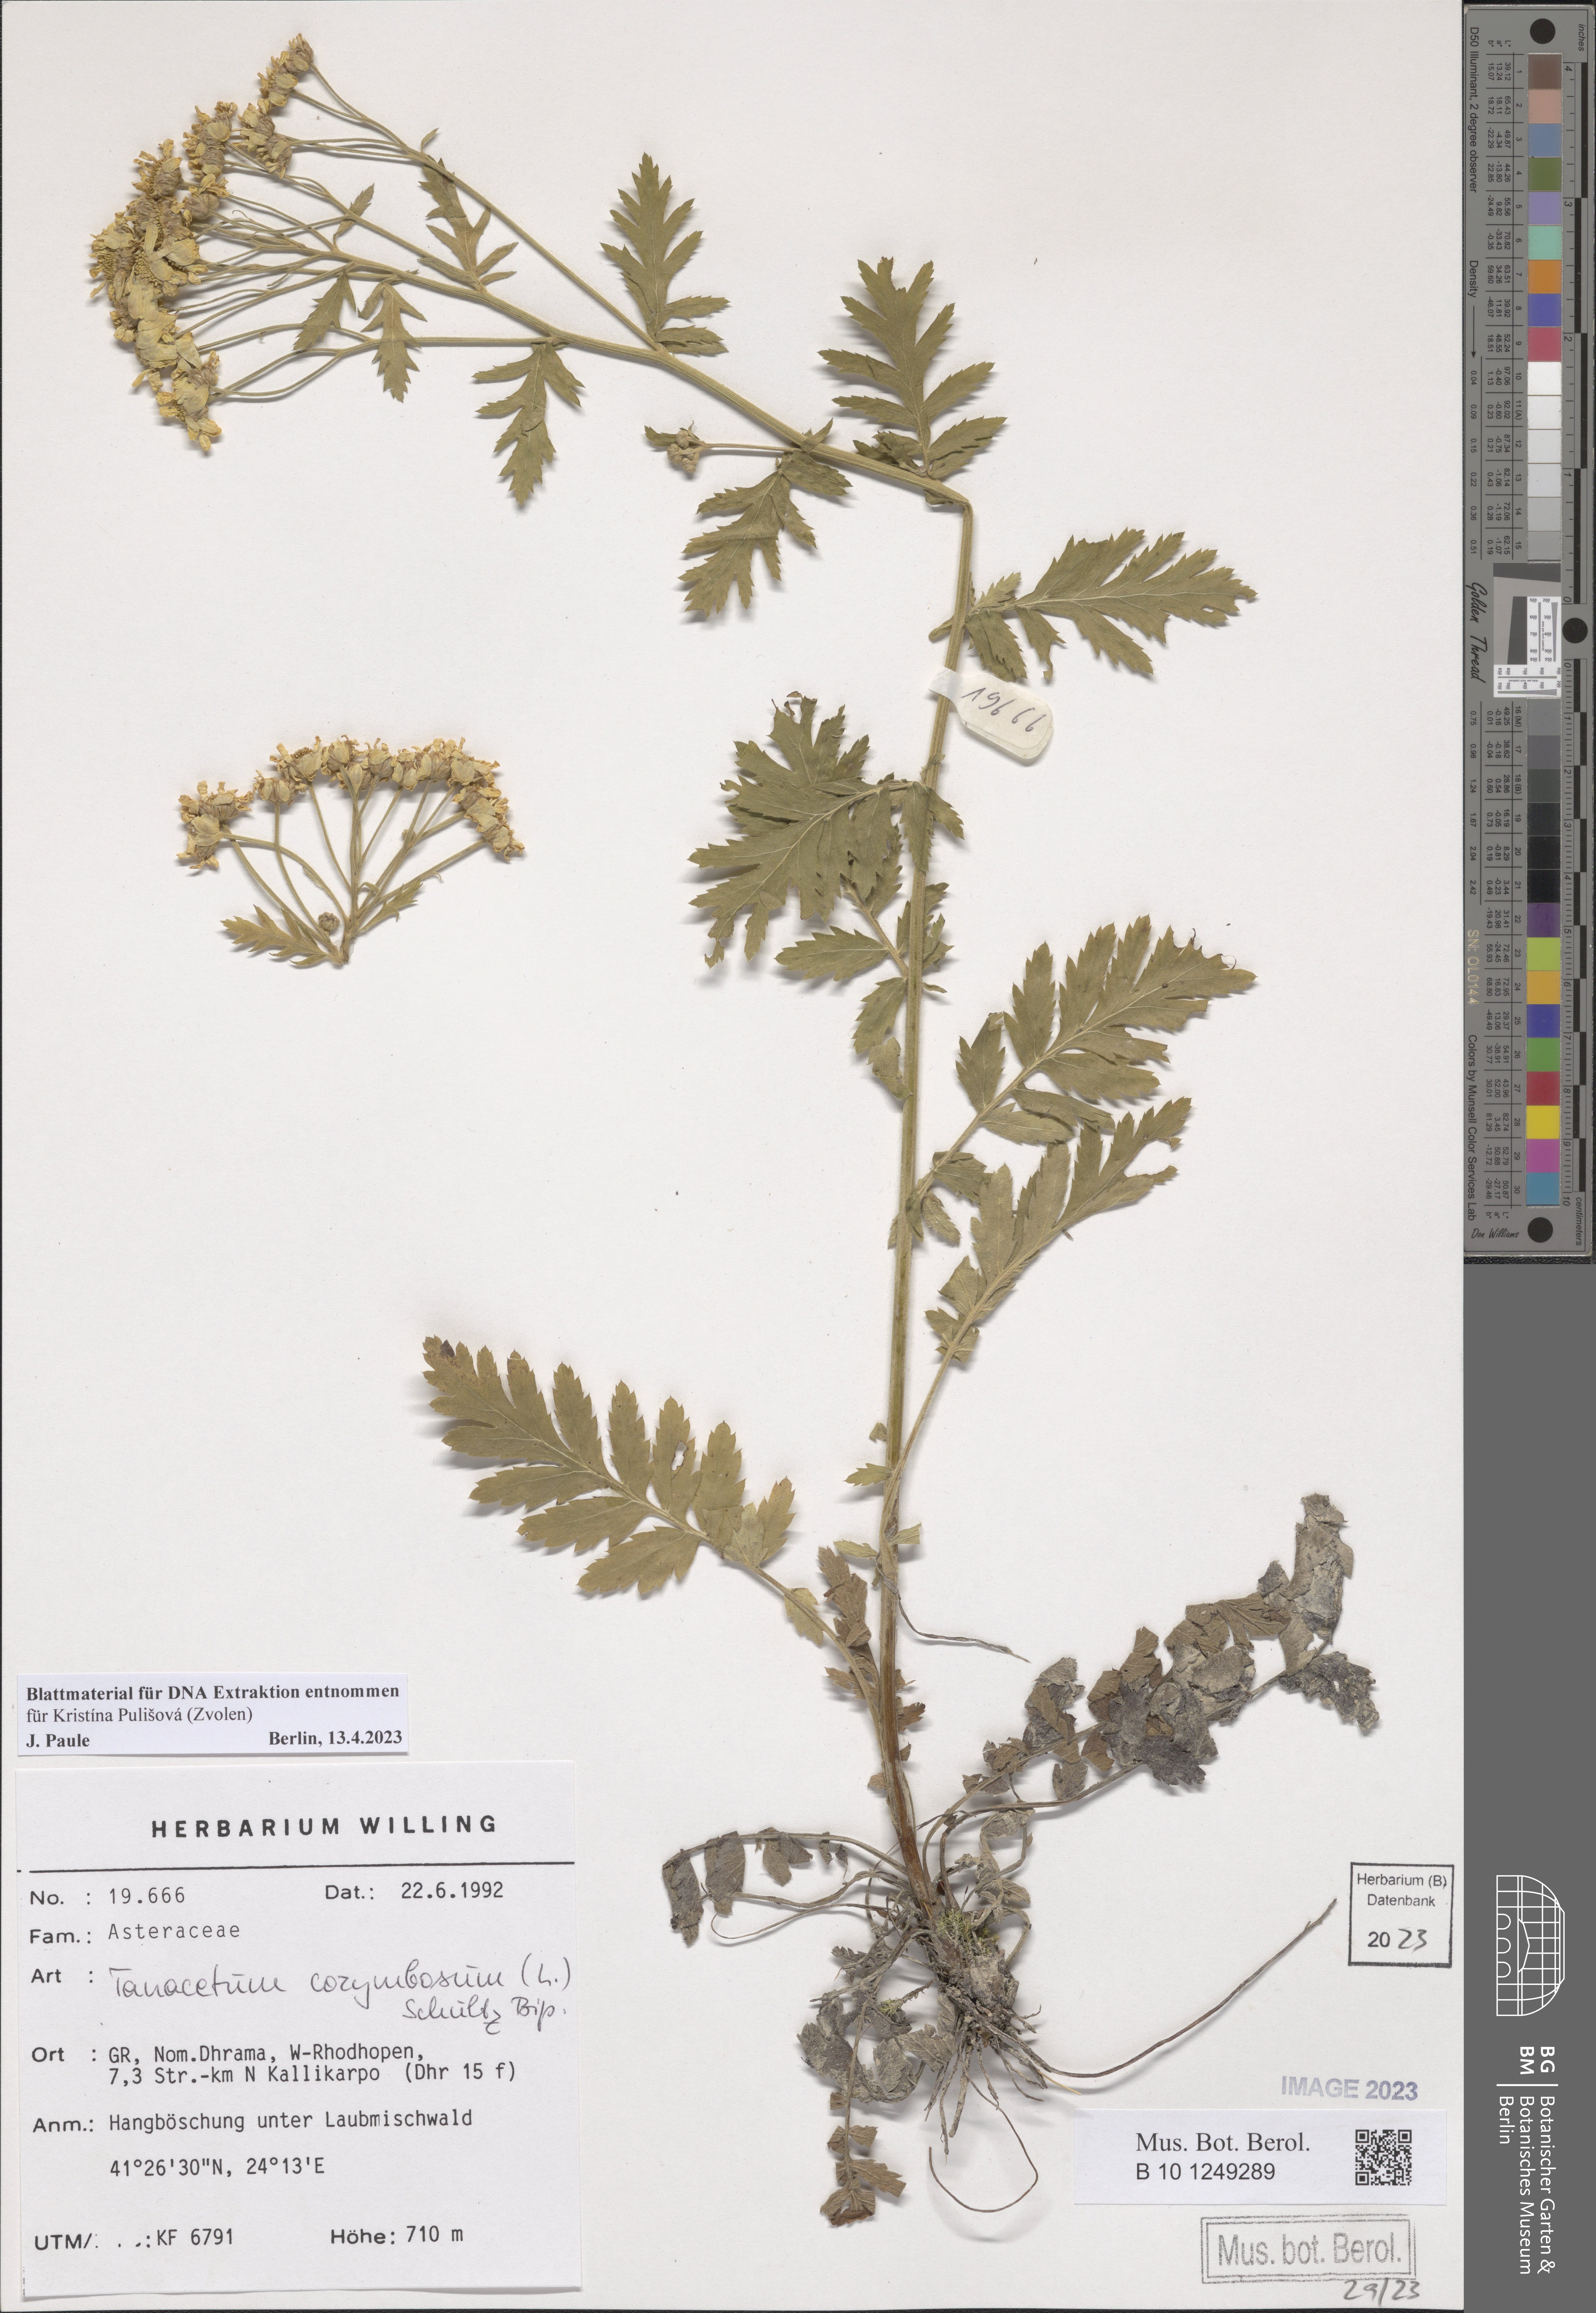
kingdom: Plantae
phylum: Tracheophyta
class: Magnoliopsida
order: Asterales
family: Asteraceae
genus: Tanacetum
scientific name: Tanacetum corymbosum
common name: Scentless feverfew
